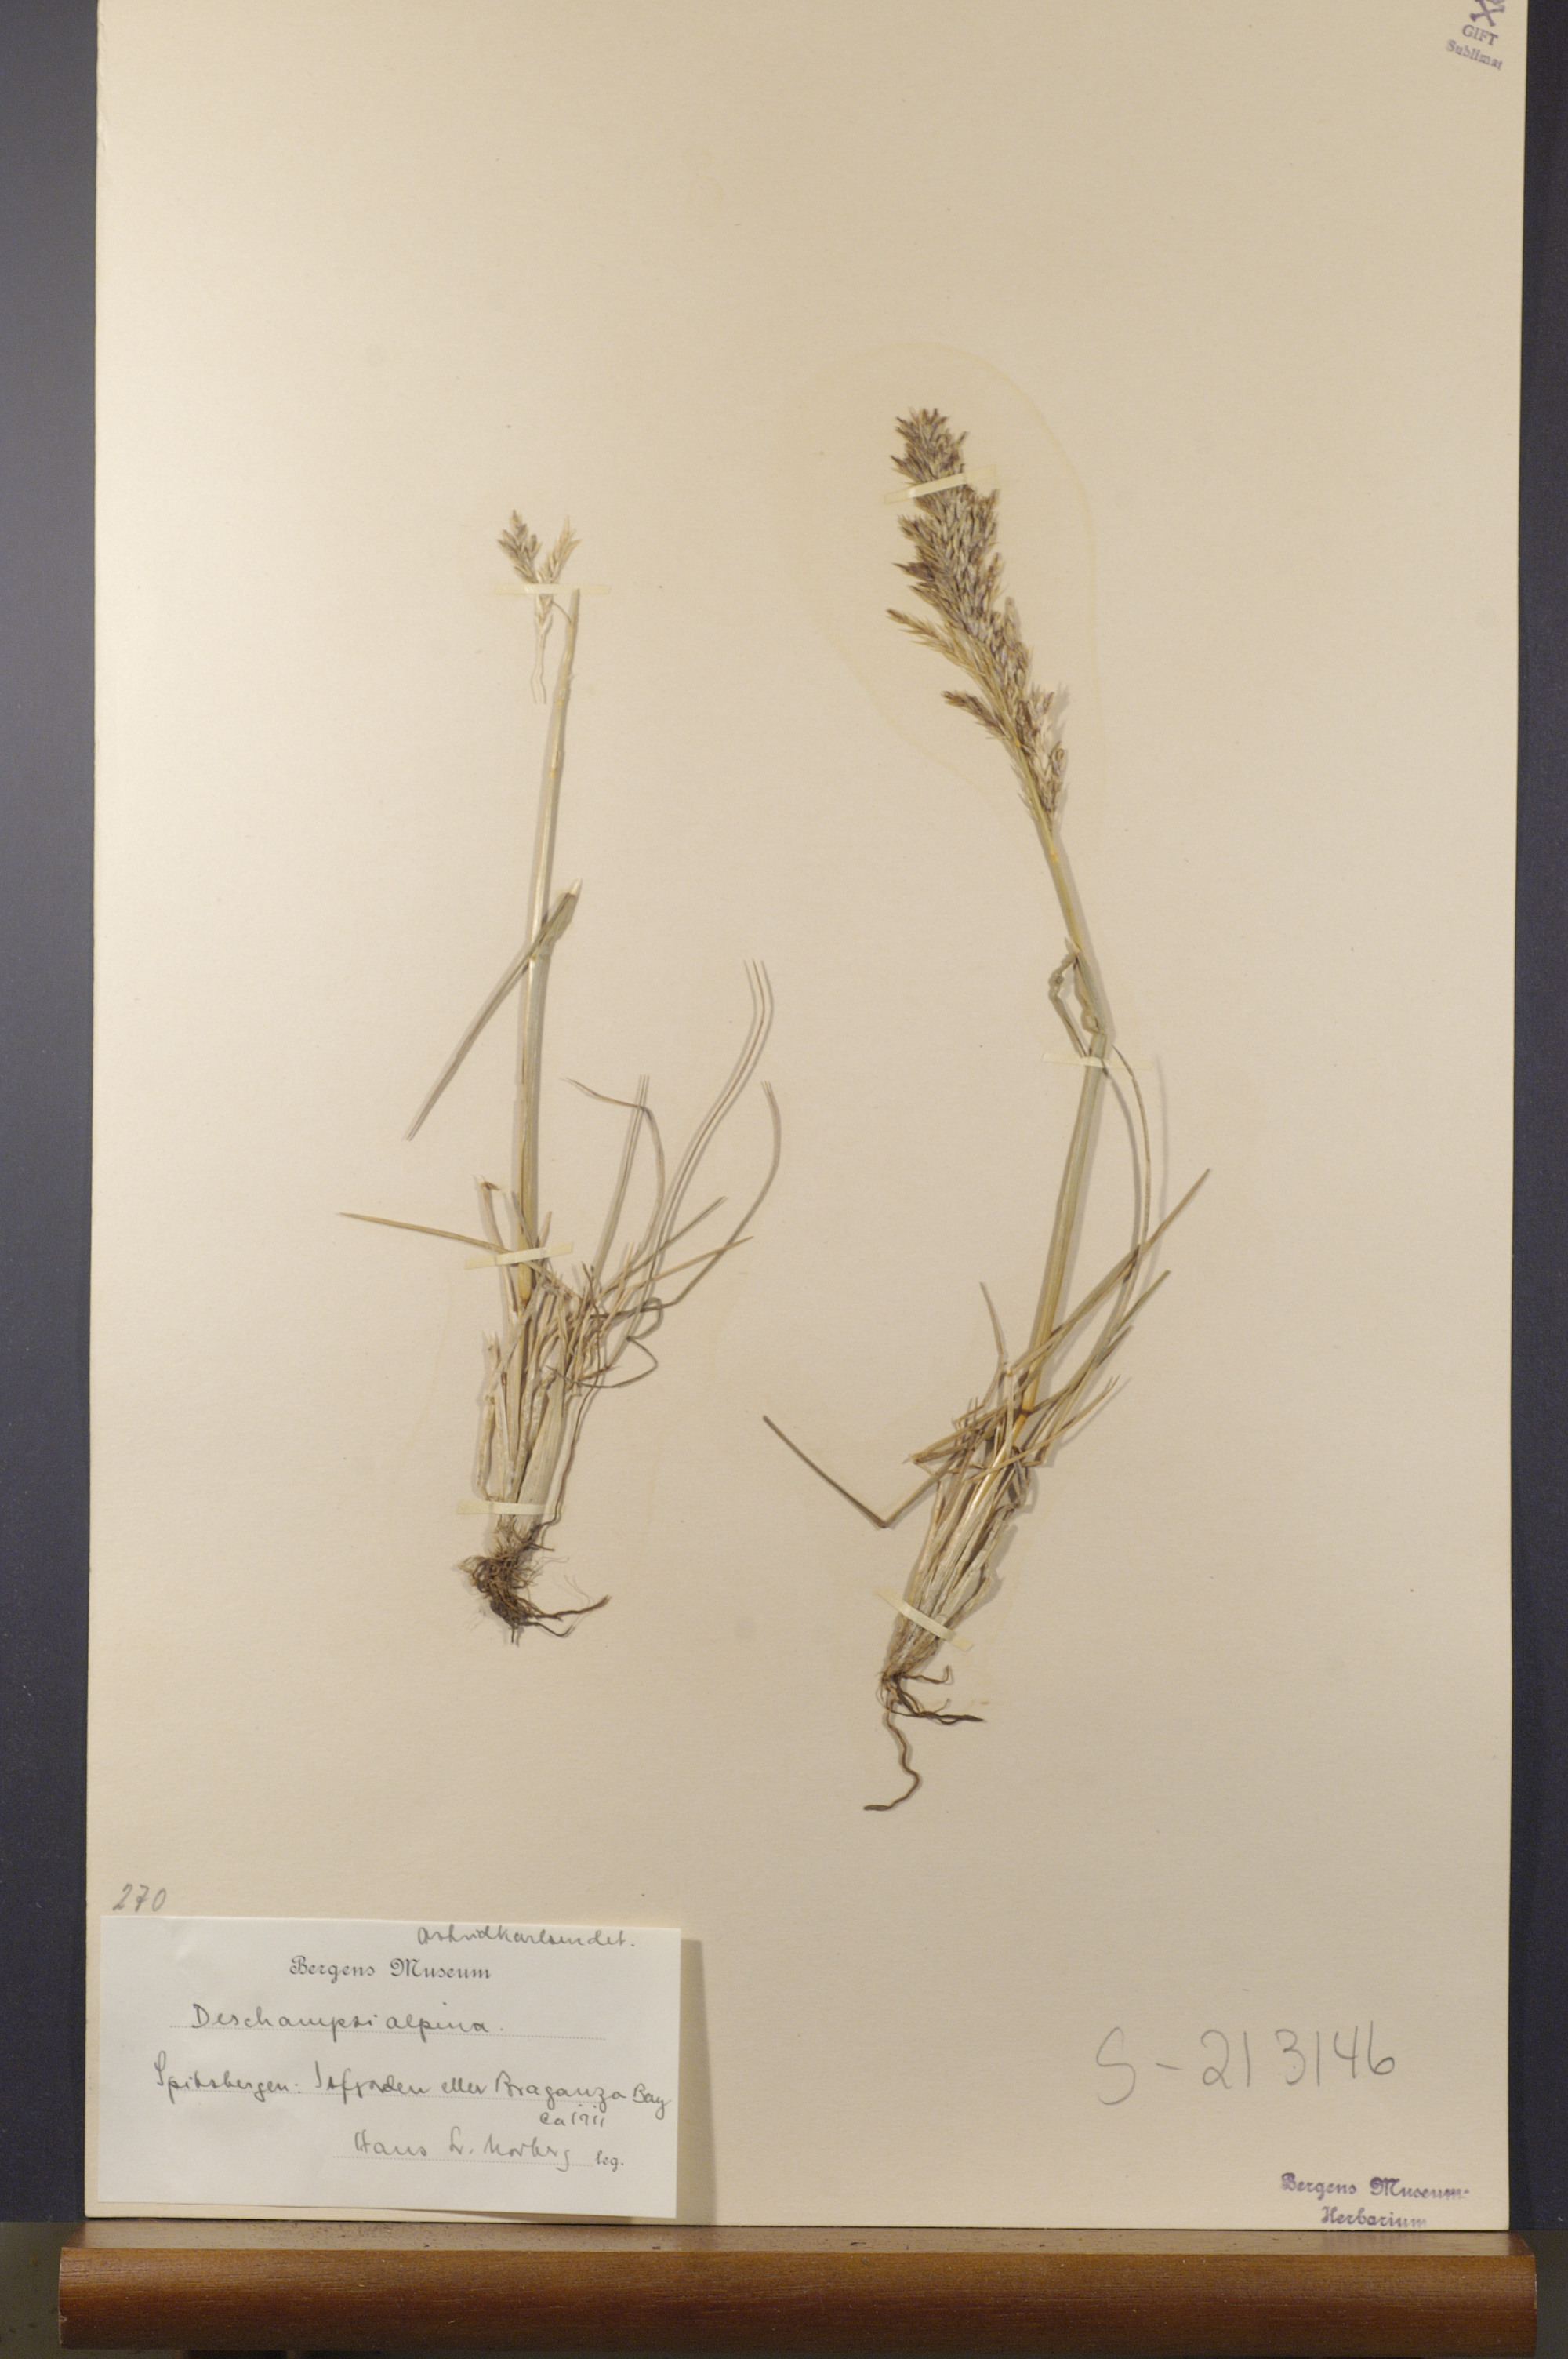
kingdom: Plantae
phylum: Tracheophyta
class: Liliopsida
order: Poales
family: Poaceae
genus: Deschampsia
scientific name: Deschampsia cespitosa
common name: Tufted hair-grass
